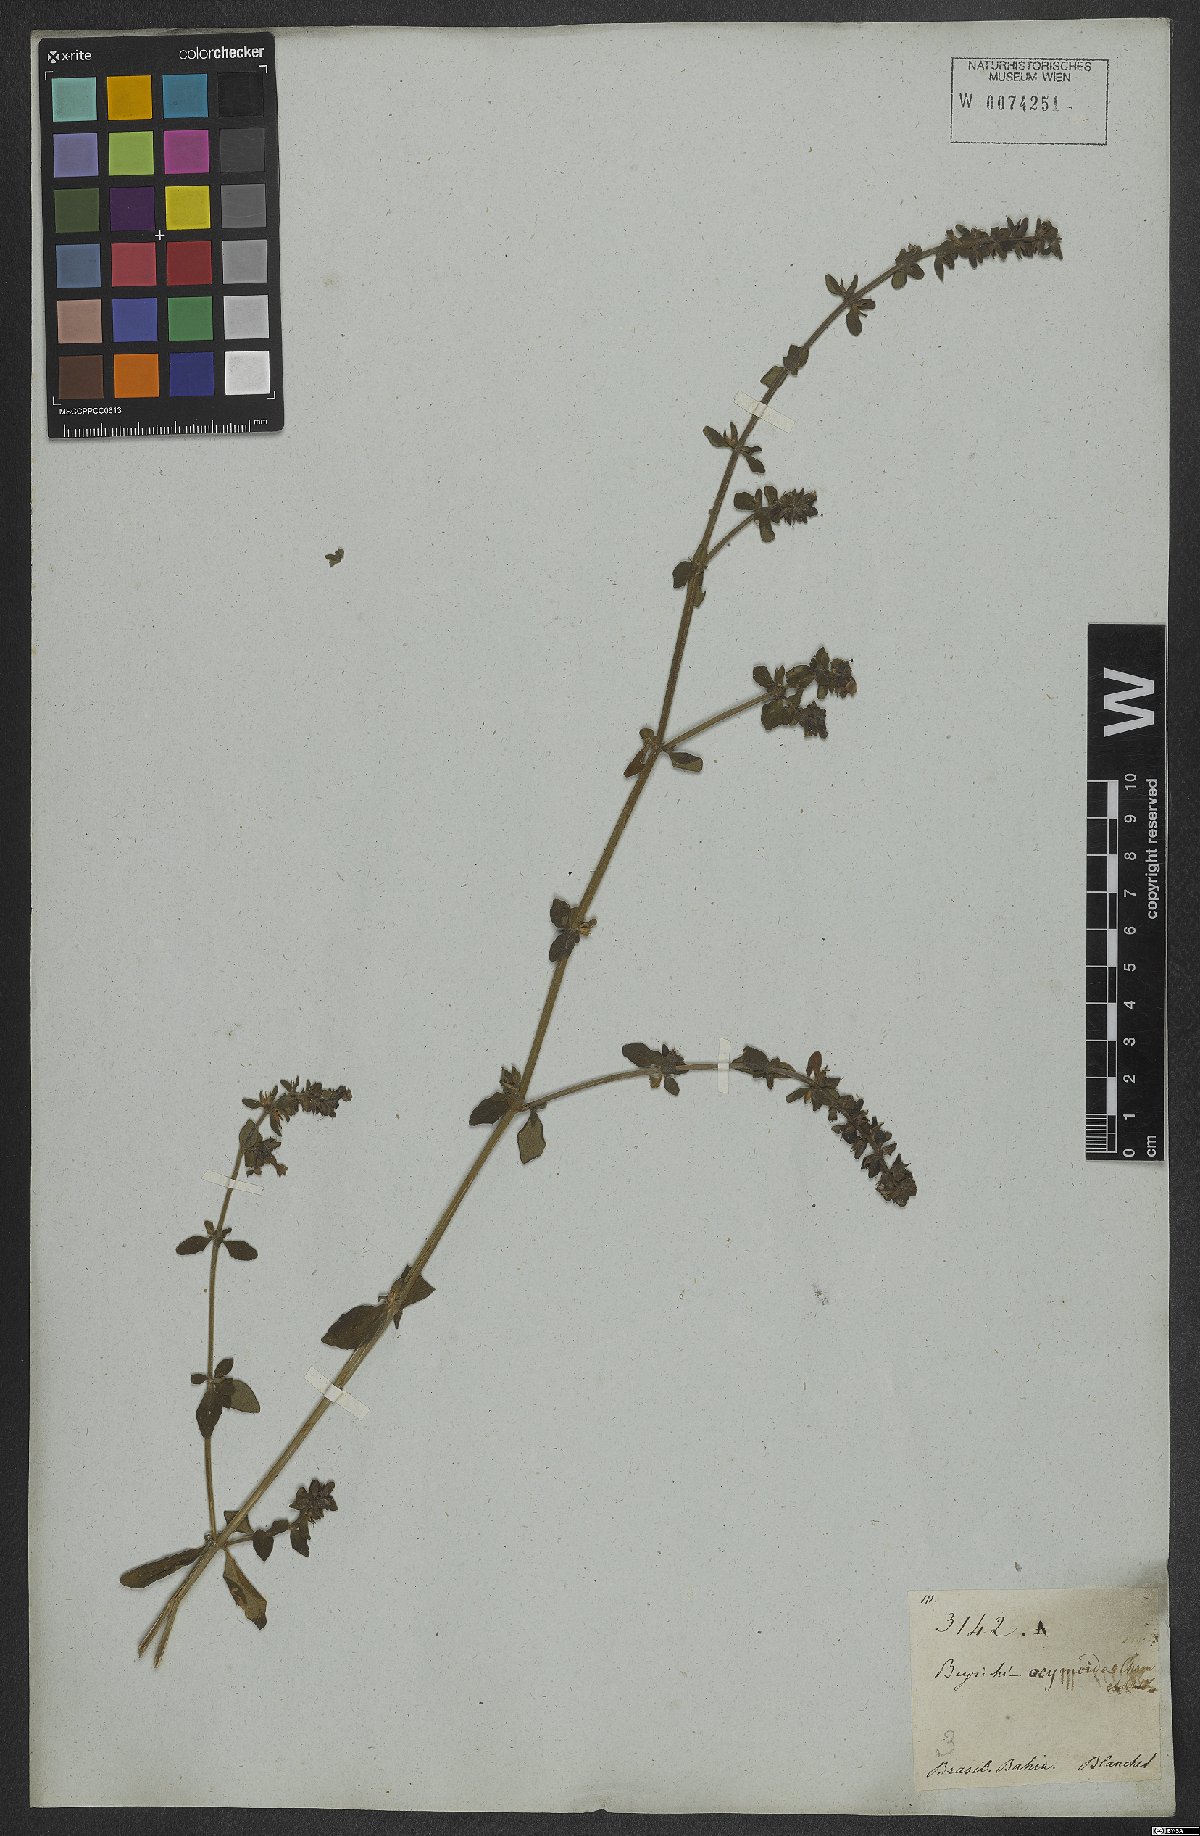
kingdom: Plantae
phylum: Tracheophyta
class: Magnoliopsida
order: Lamiales
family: Plantaginaceae
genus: Matourea
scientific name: Matourea ocymoides
